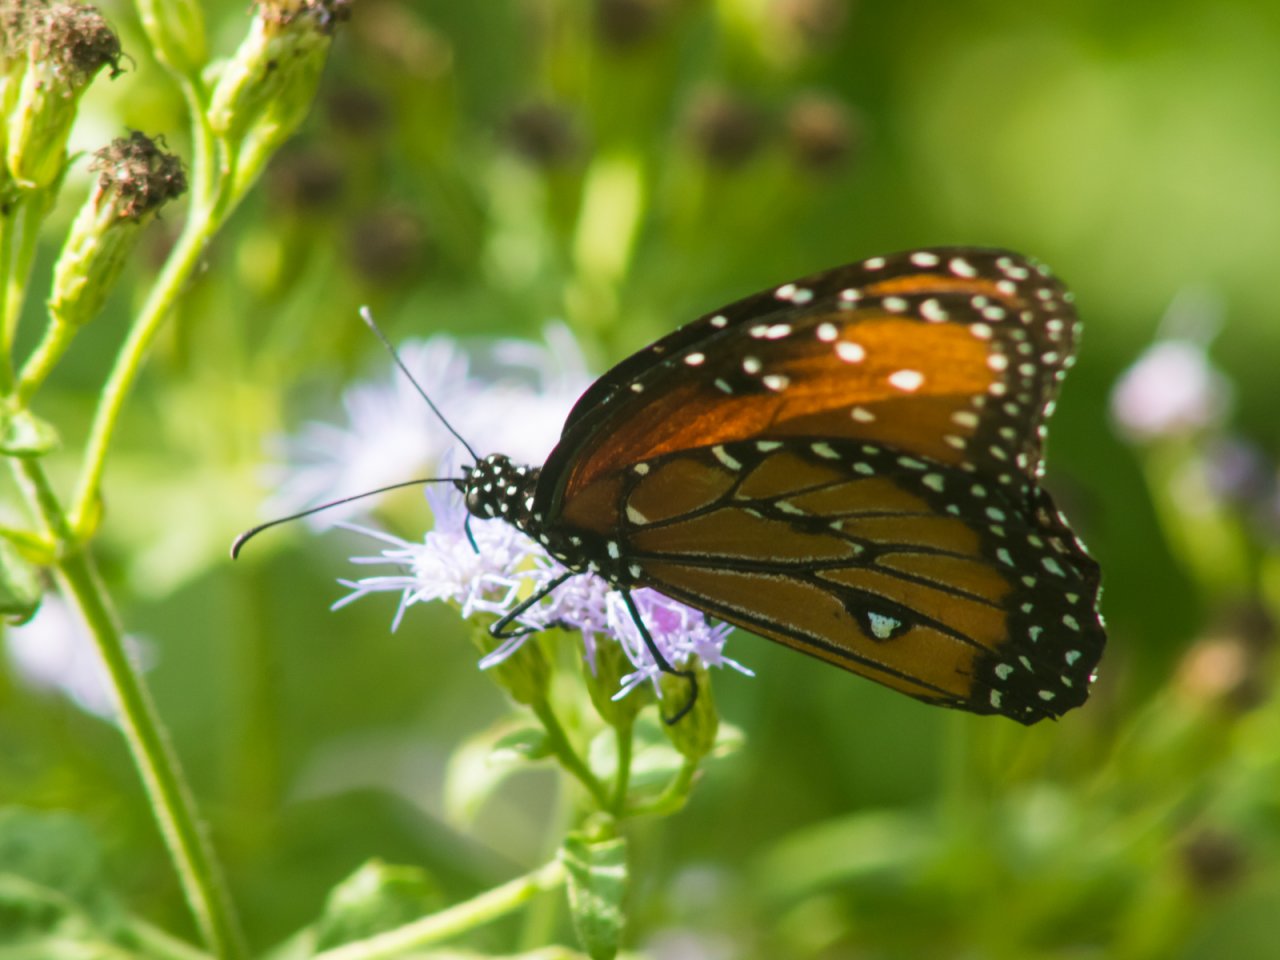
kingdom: Animalia
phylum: Arthropoda
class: Insecta
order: Lepidoptera
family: Nymphalidae
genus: Danaus
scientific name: Danaus gilippus
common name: Queen
